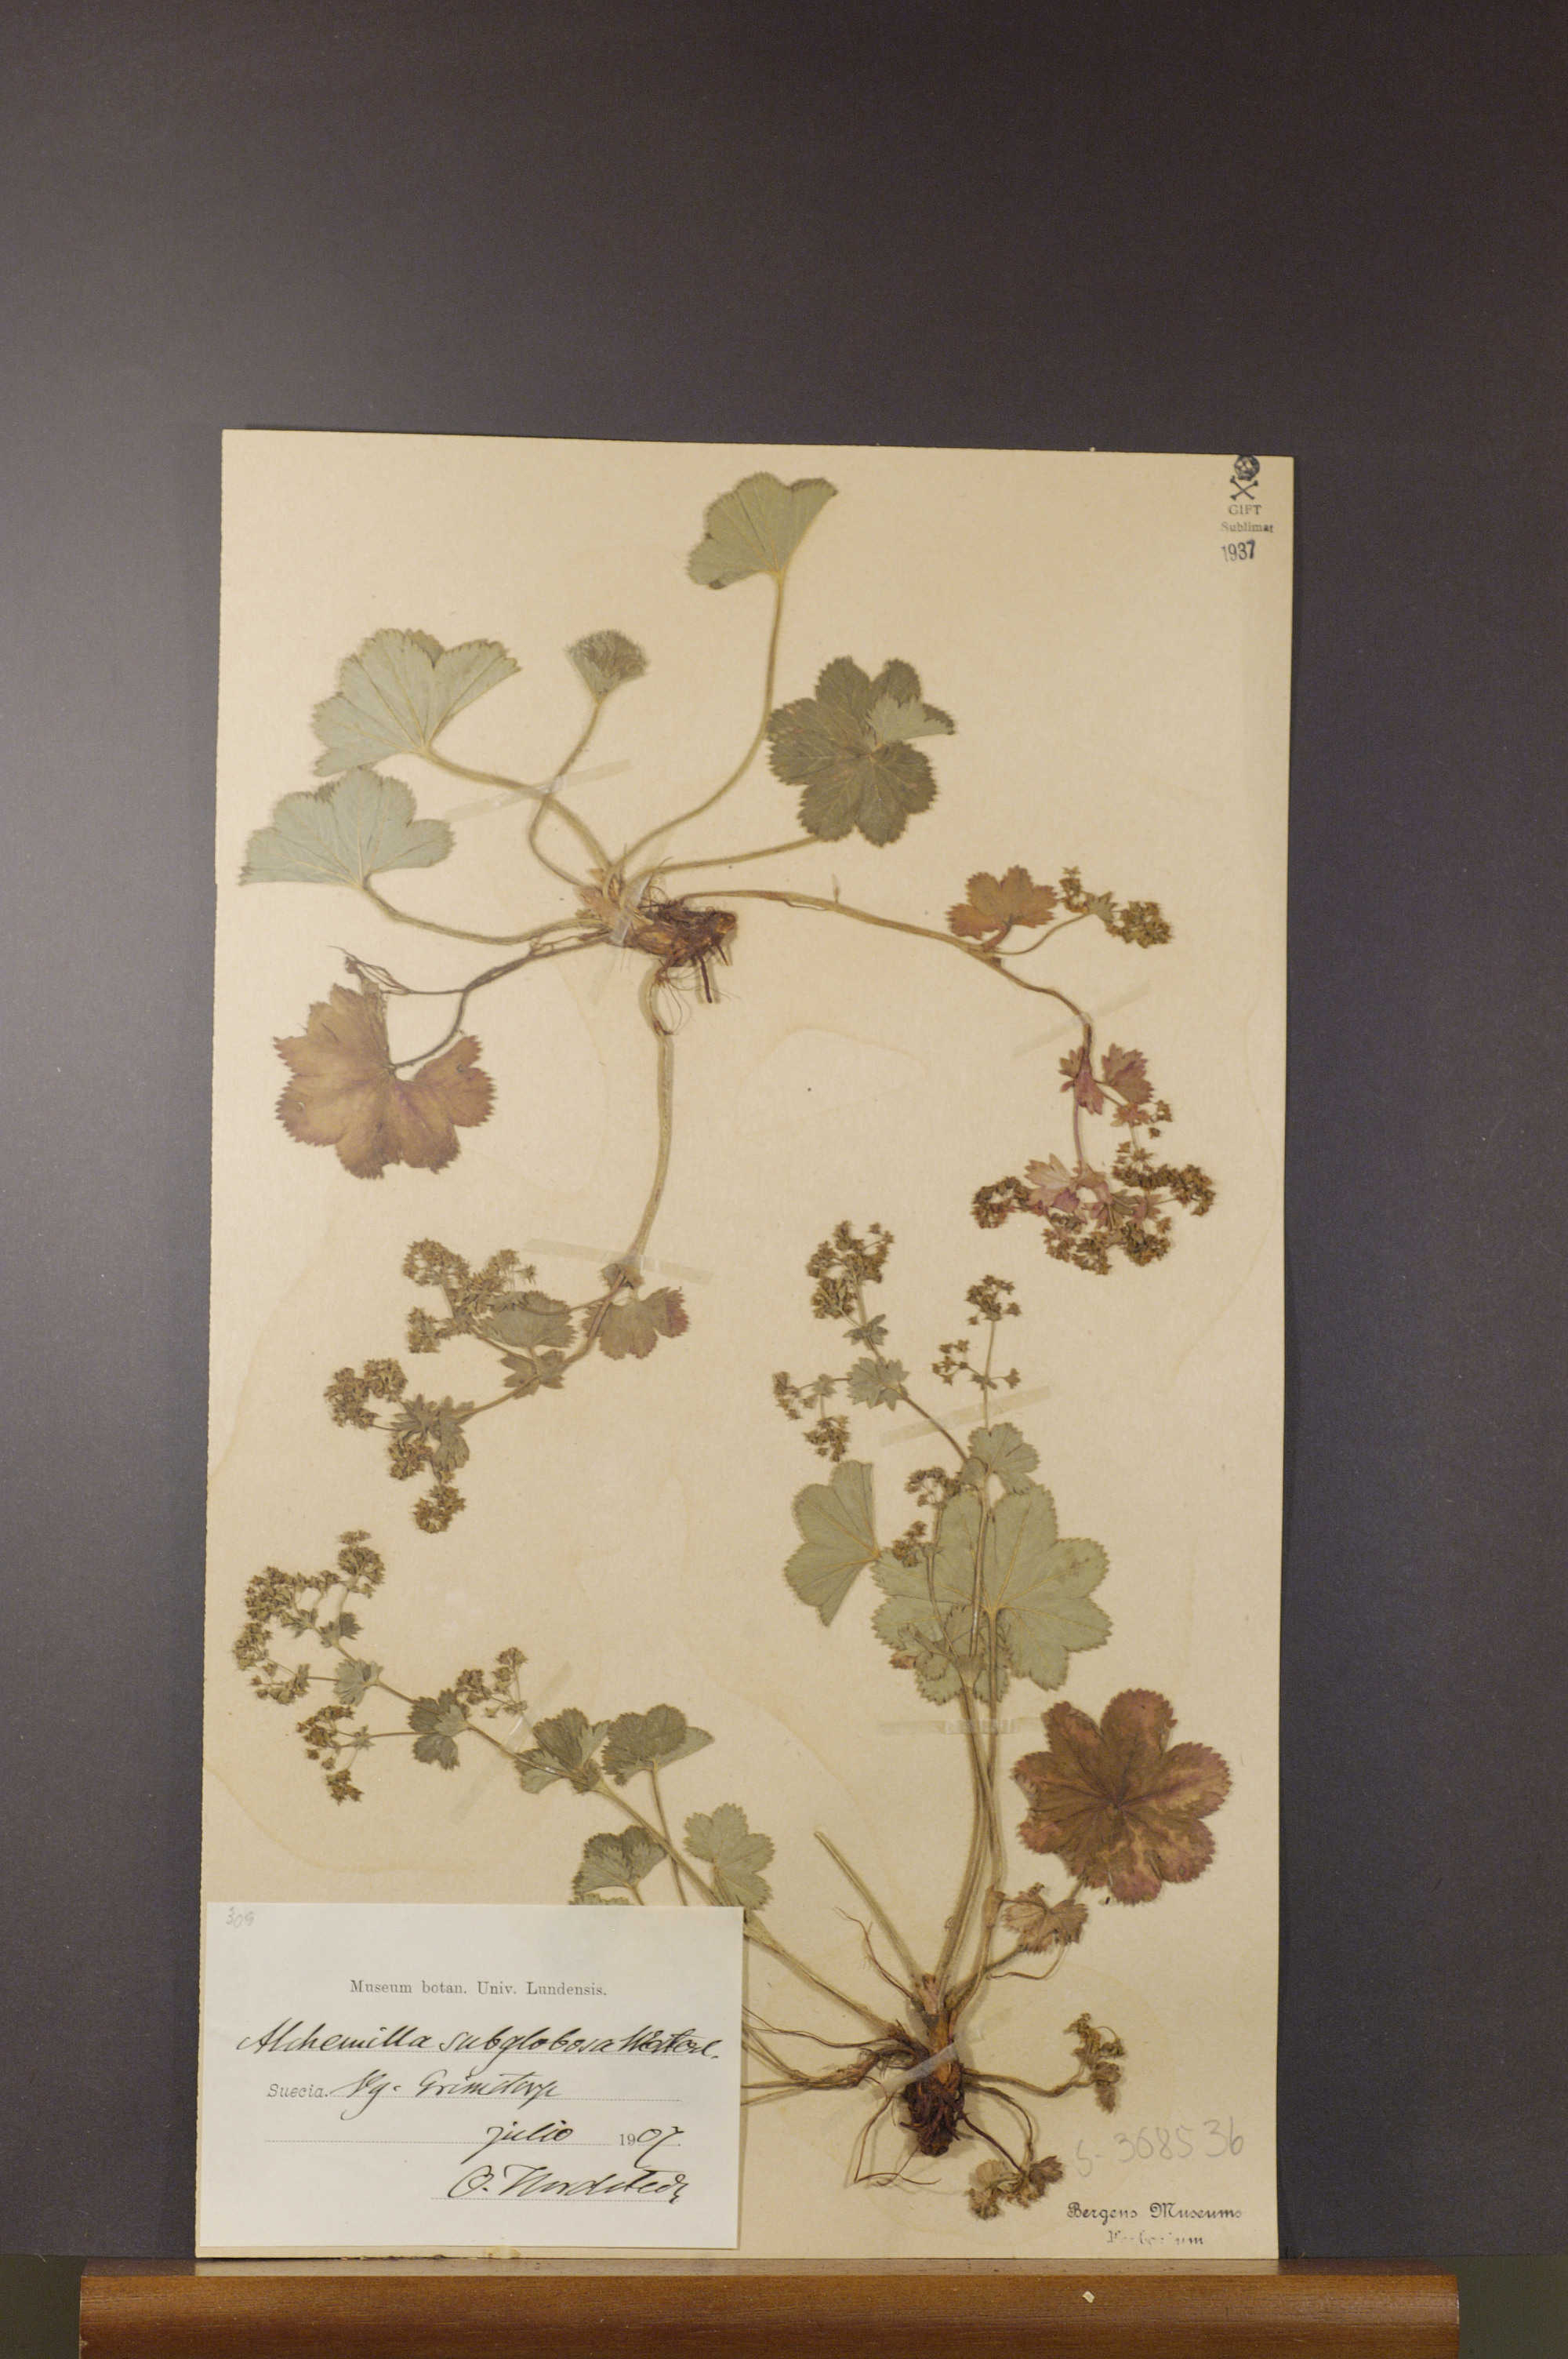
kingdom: Plantae
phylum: Tracheophyta
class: Magnoliopsida
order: Rosales
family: Rosaceae
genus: Alchemilla
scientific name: Alchemilla subglobosa
